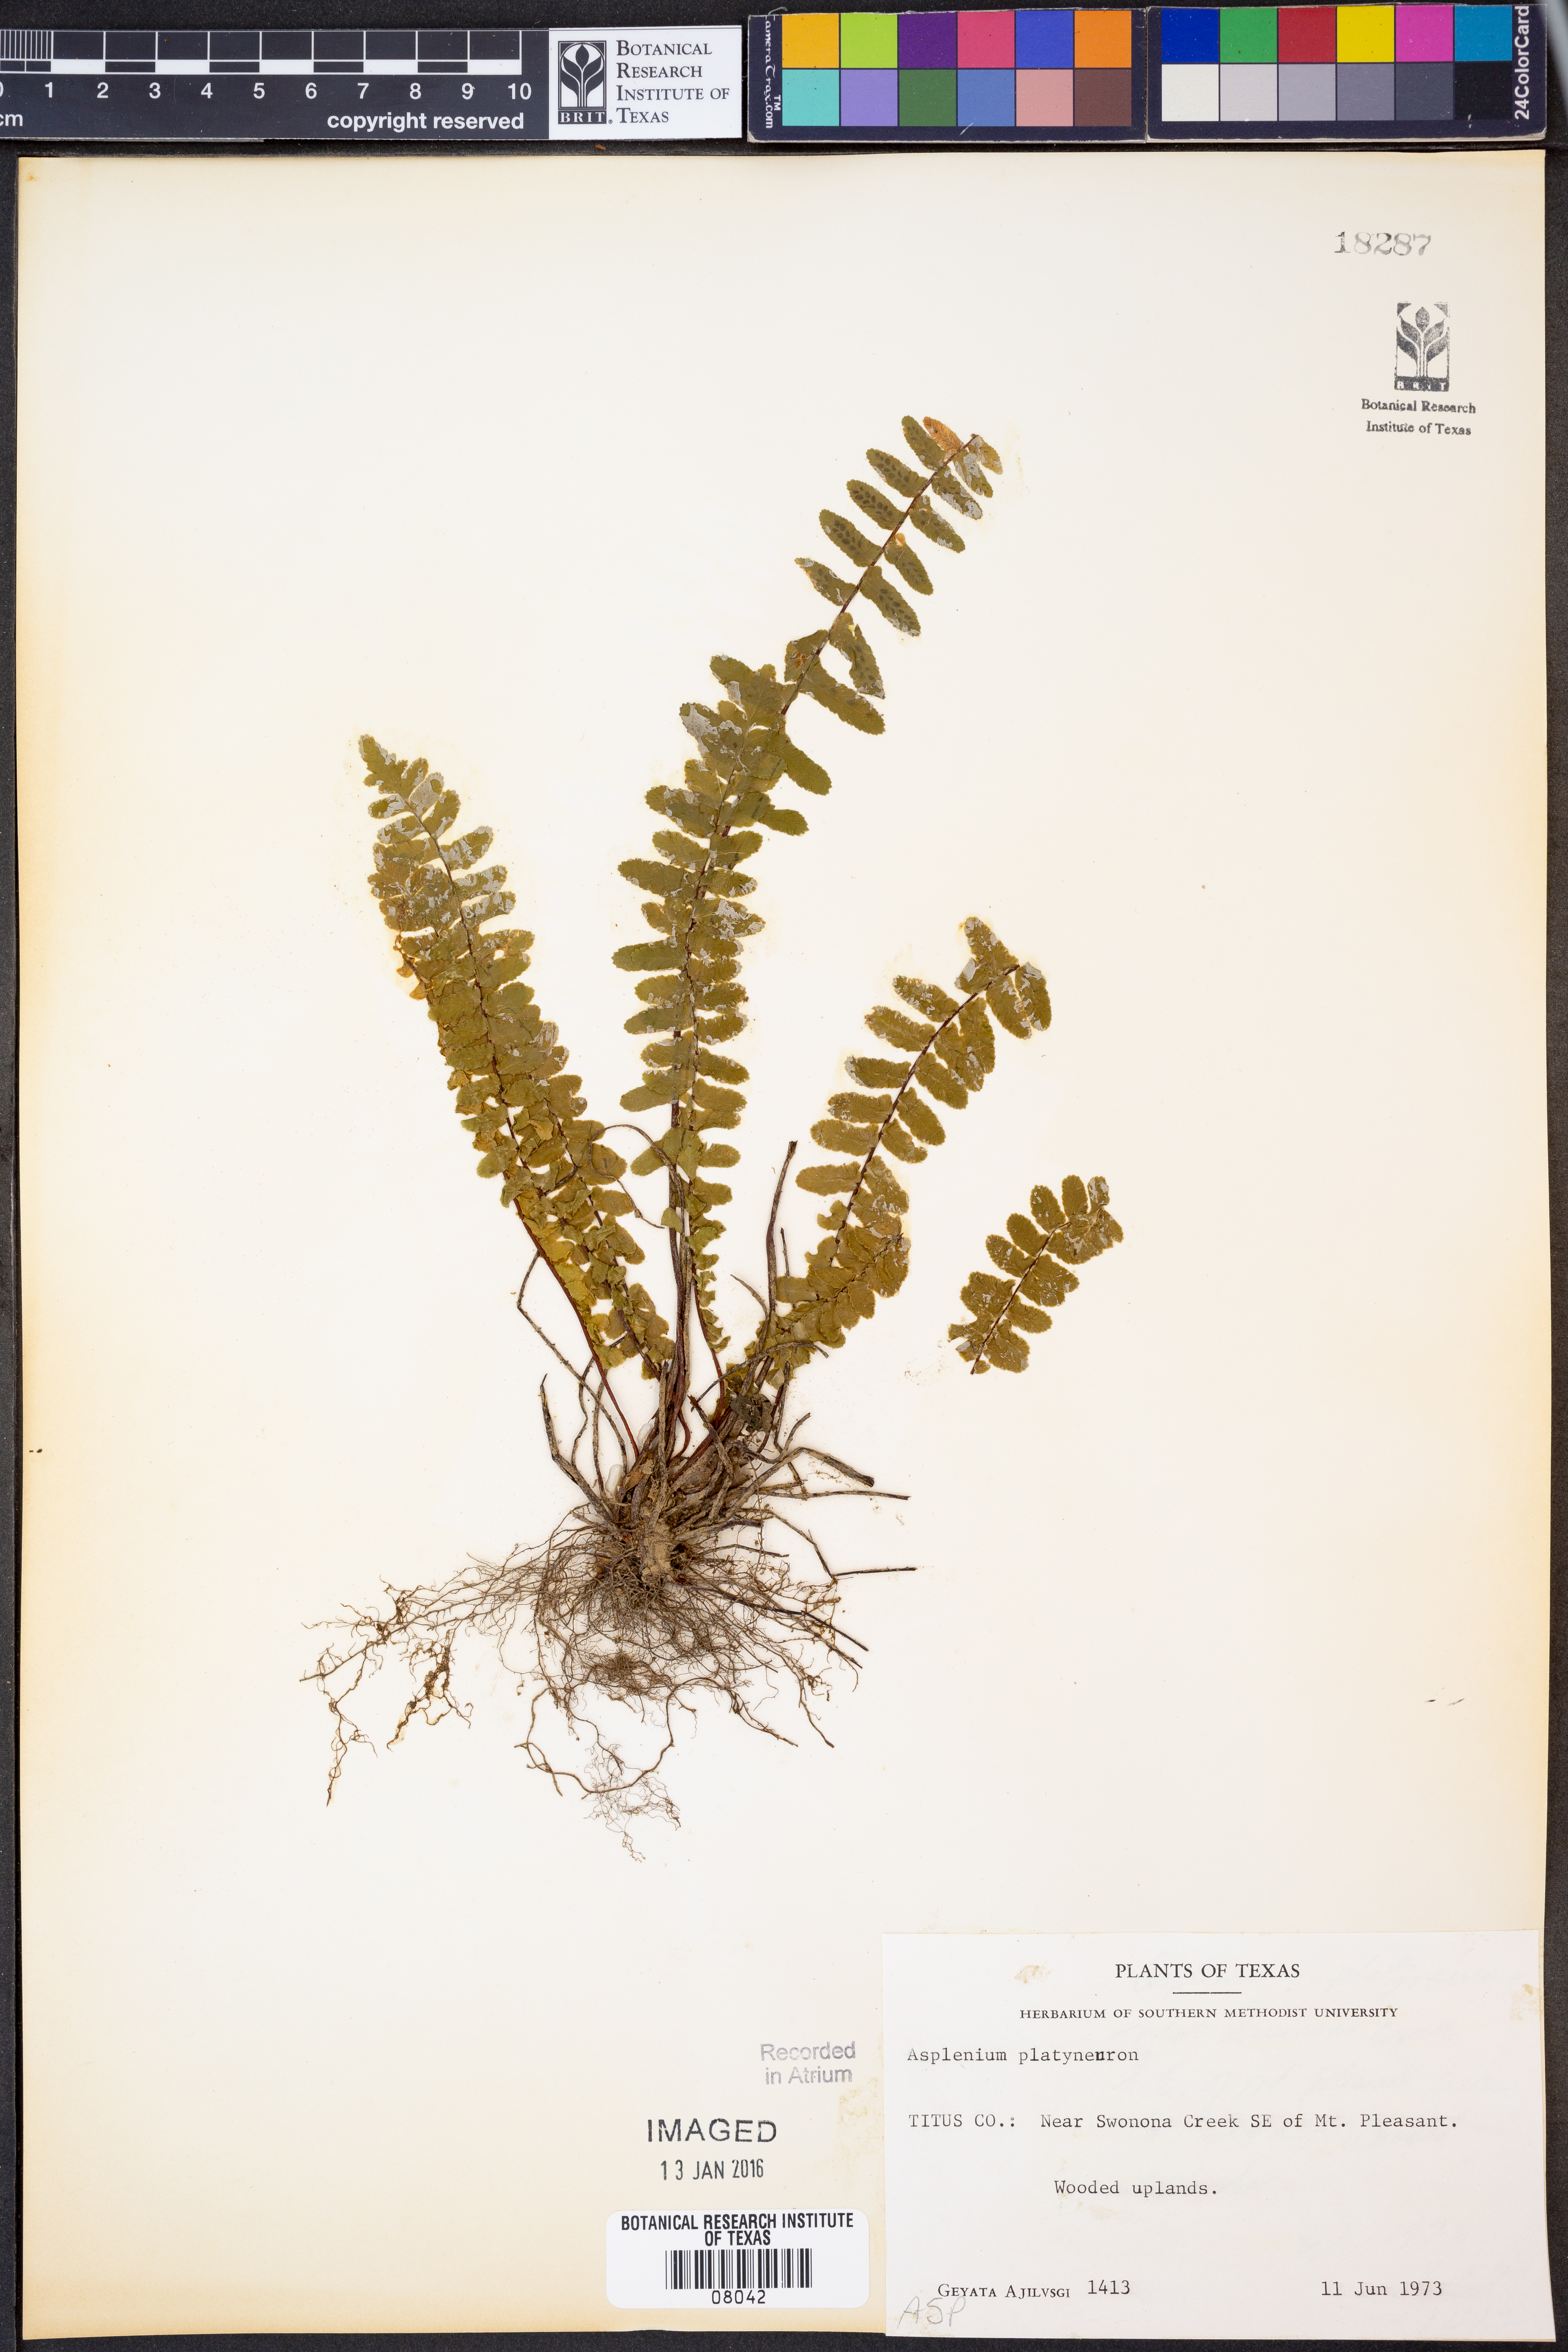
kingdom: Plantae
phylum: Tracheophyta
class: Polypodiopsida
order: Polypodiales
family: Aspleniaceae
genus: Asplenium
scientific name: Asplenium platyneuron
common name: Ebony spleenwort
